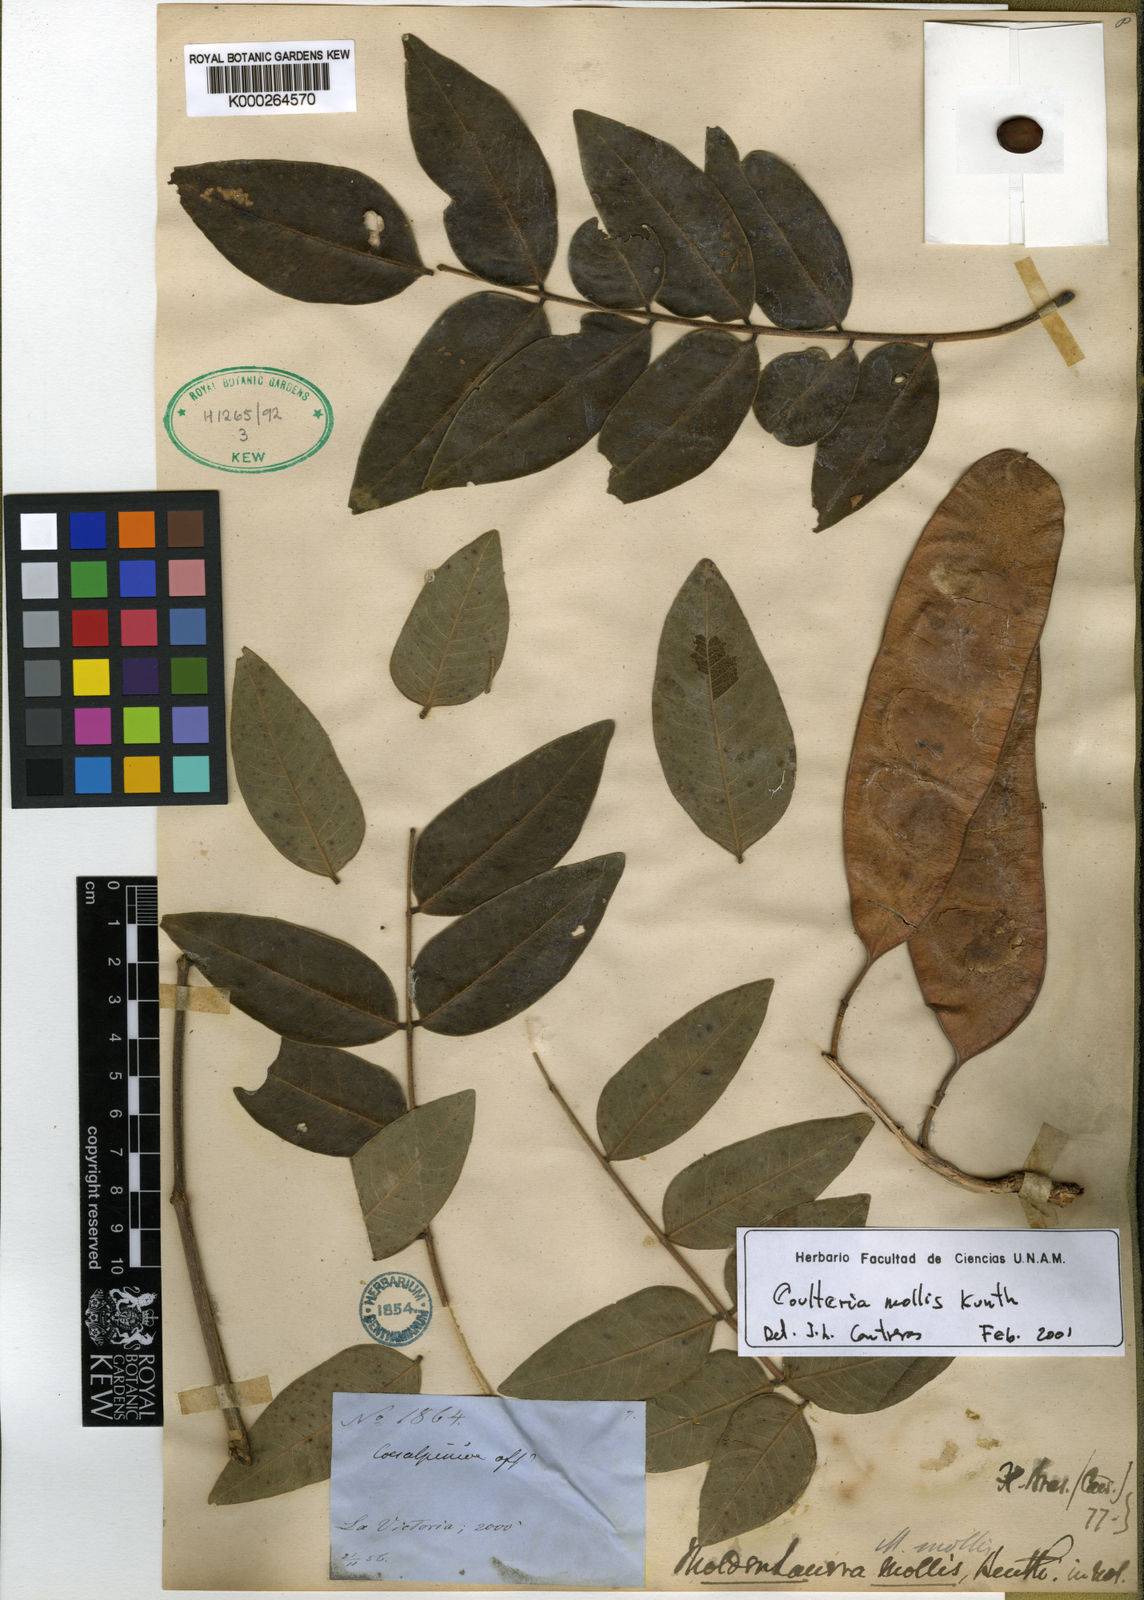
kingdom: Plantae
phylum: Tracheophyta
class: Magnoliopsida
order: Fabales
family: Fabaceae
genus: Coulteria
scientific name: Coulteria mollis
